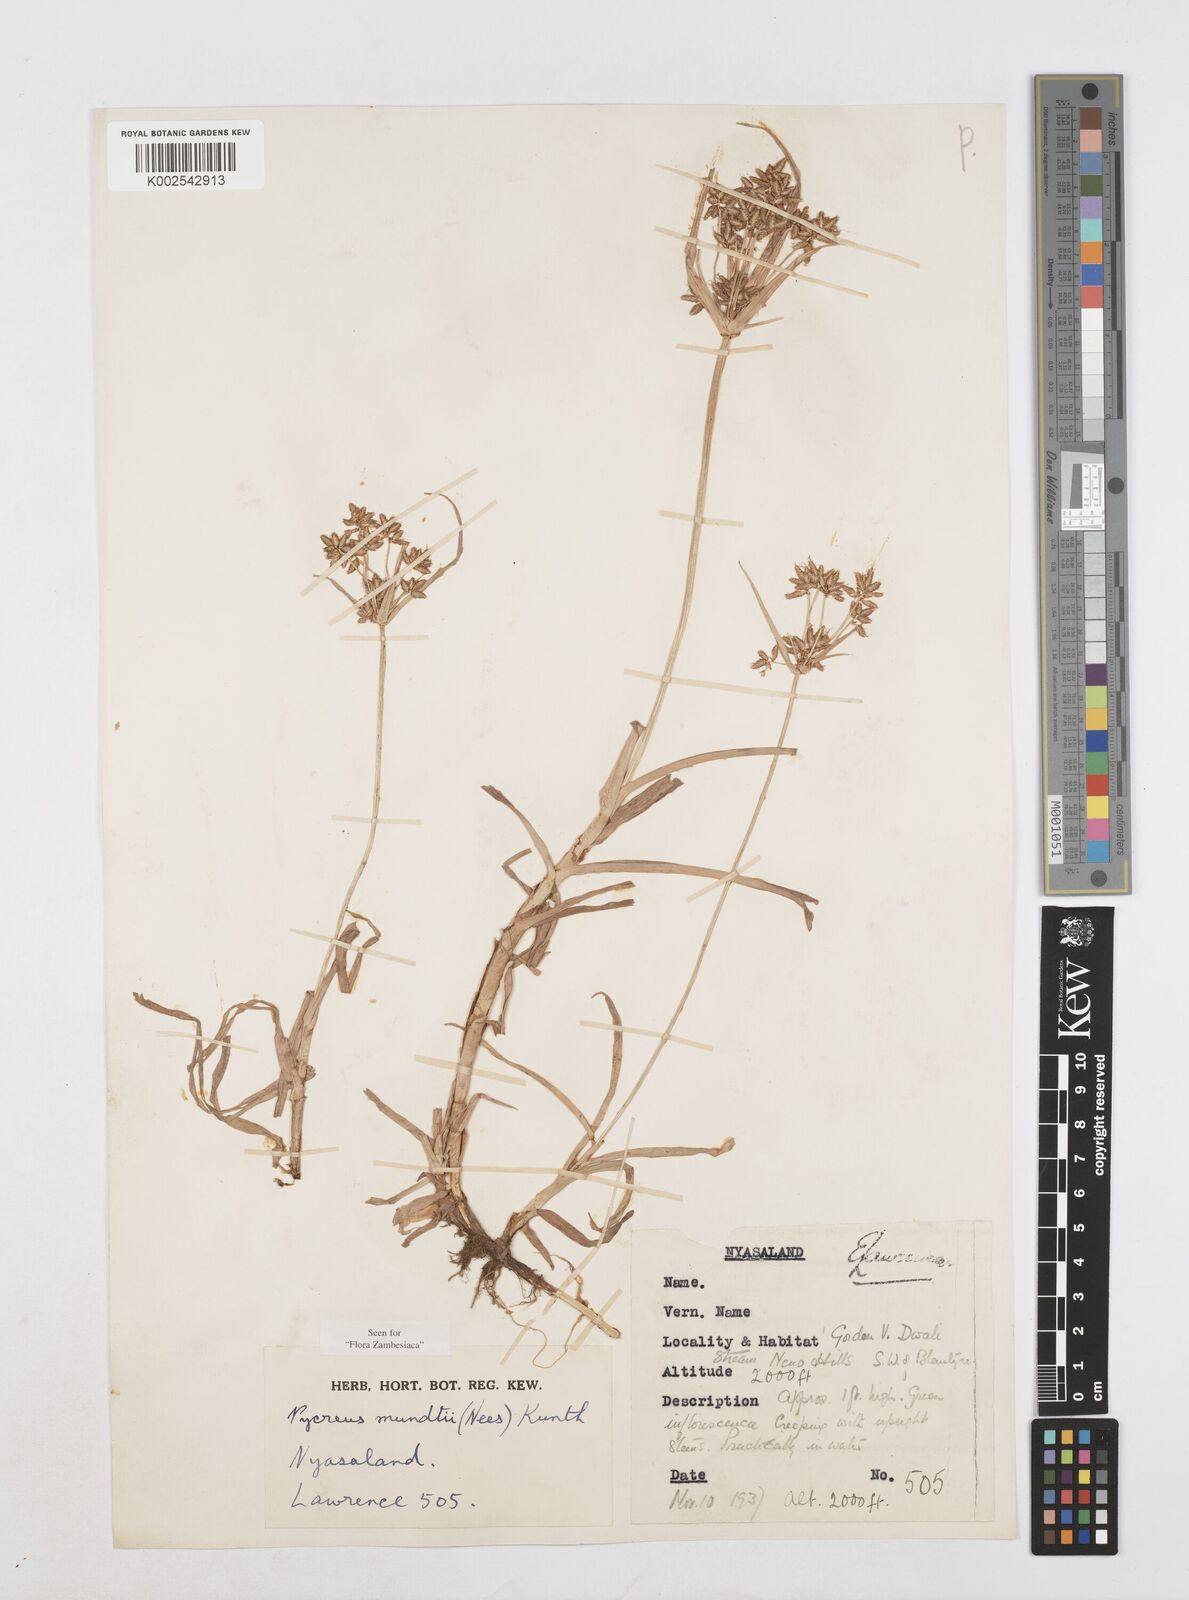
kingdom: Plantae
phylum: Tracheophyta
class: Liliopsida
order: Poales
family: Cyperaceae
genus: Cyperus
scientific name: Cyperus mundii
